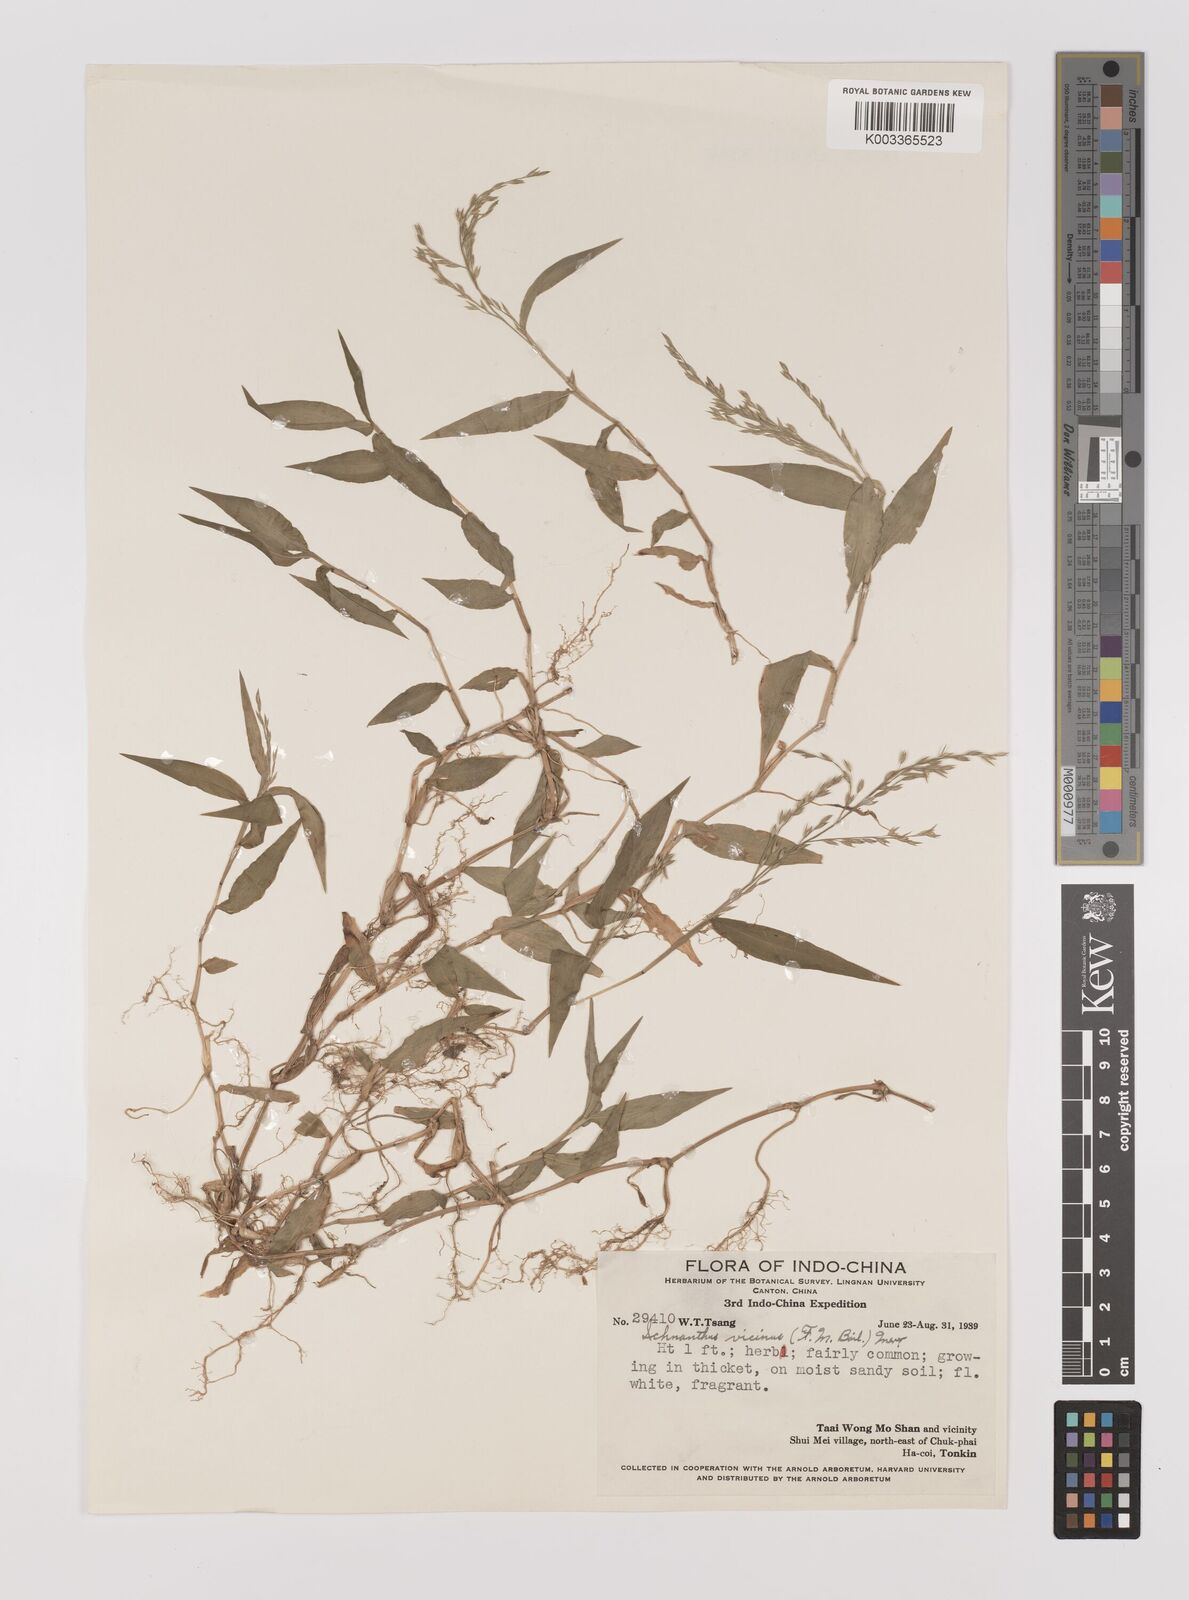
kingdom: Plantae
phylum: Tracheophyta
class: Liliopsida
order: Poales
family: Poaceae
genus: Ichnanthus
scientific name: Ichnanthus pallens
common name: Water grass
